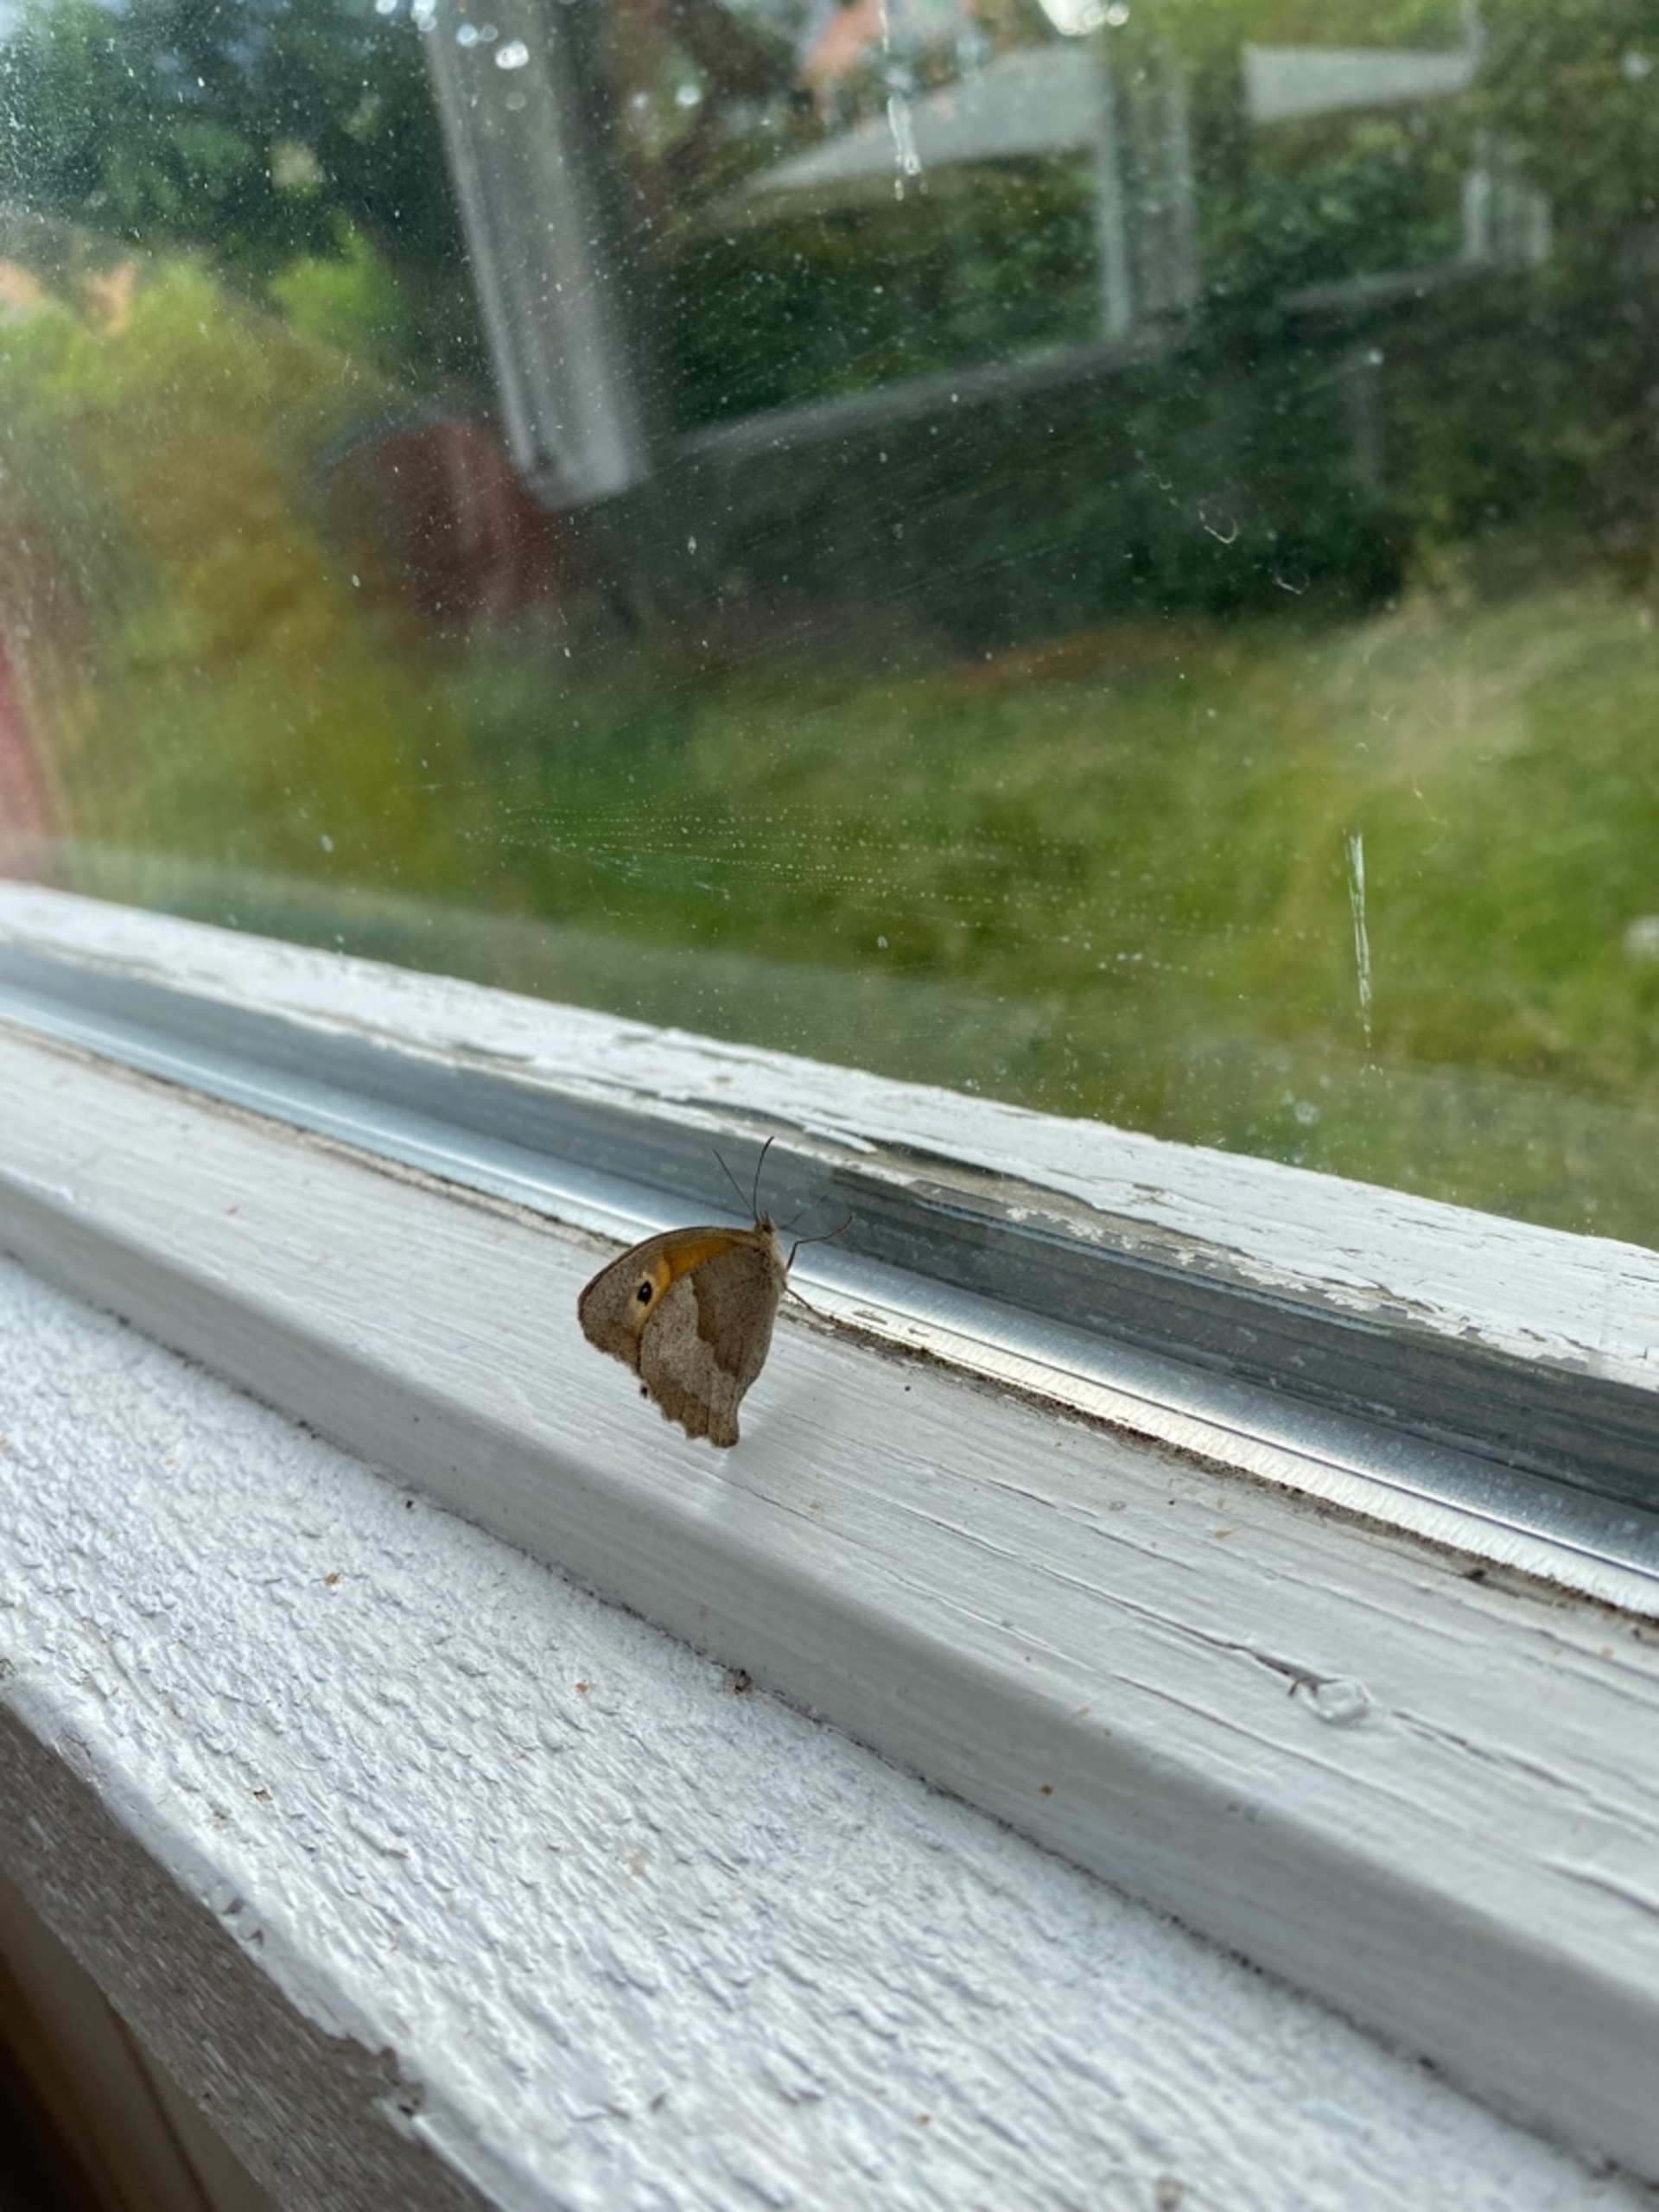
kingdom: Animalia
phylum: Arthropoda
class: Insecta
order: Lepidoptera
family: Nymphalidae
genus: Maniola
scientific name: Maniola jurtina
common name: Græsrandøje
